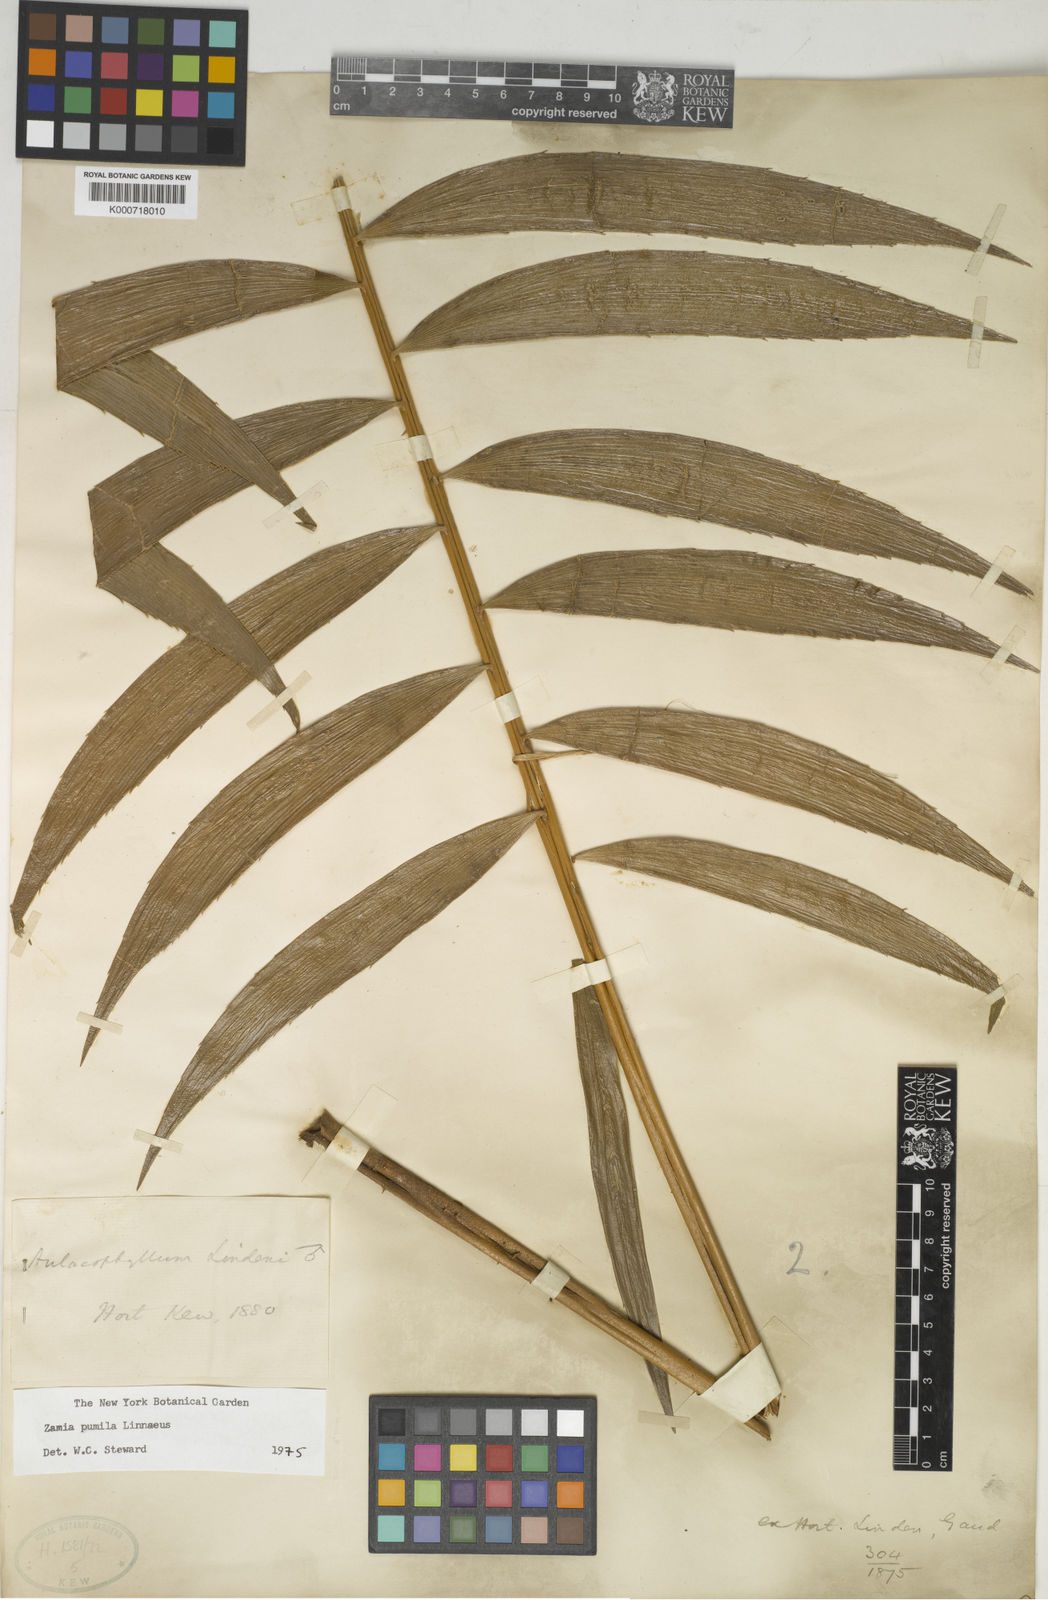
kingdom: Plantae
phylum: Tracheophyta
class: Cycadopsida
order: Cycadales
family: Zamiaceae
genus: Zamia
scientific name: Zamia pumila
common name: Florida arrowroot
